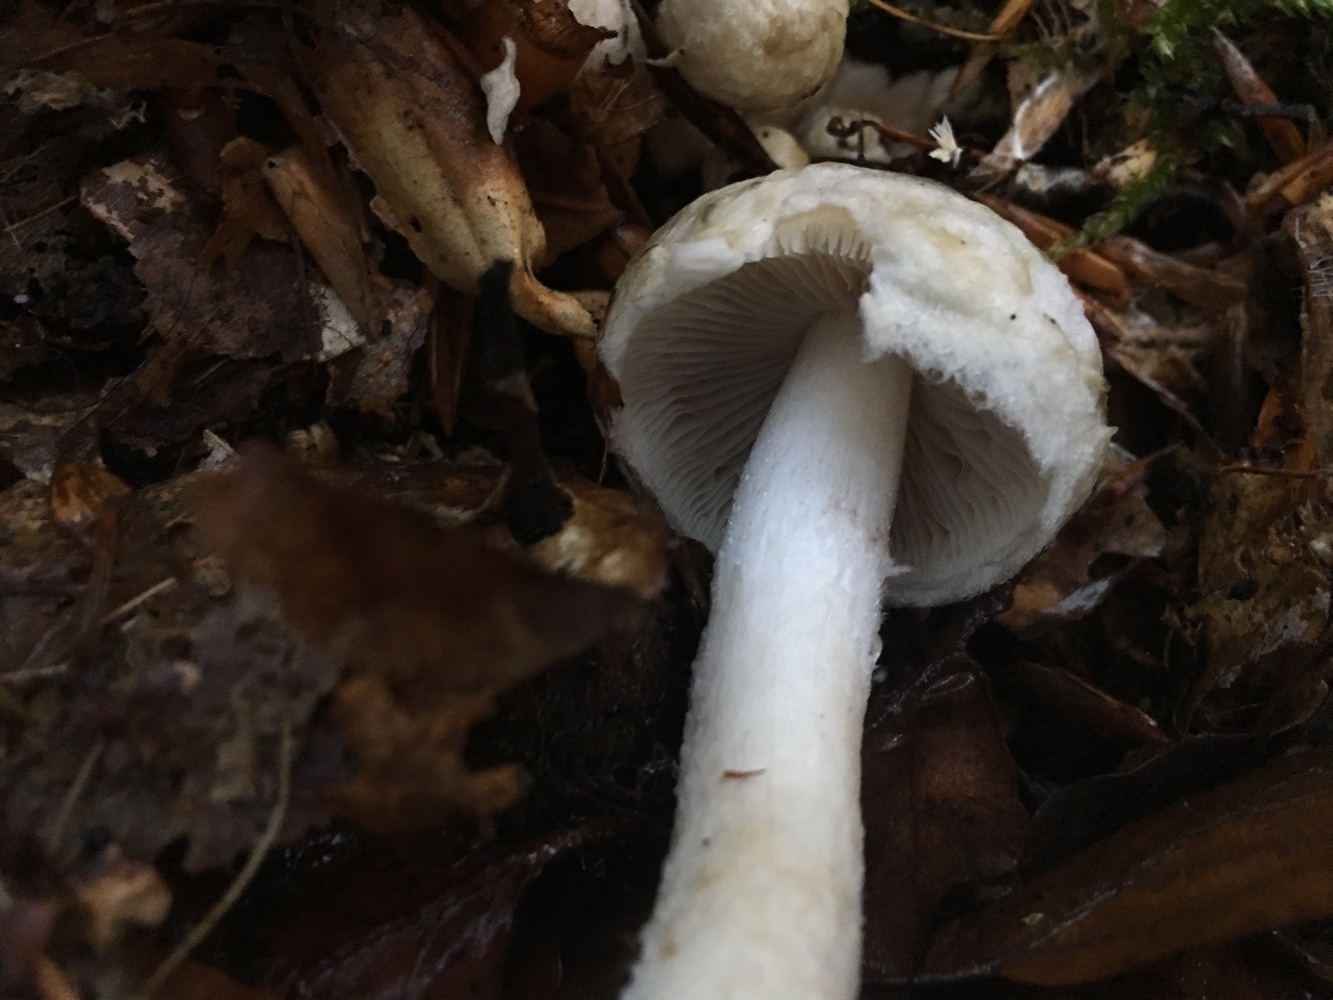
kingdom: Fungi
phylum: Basidiomycota
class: Agaricomycetes
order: Agaricales
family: Psathyrellaceae
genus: Psathyrella
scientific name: Psathyrella cotonea
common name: skællet mørkhat
